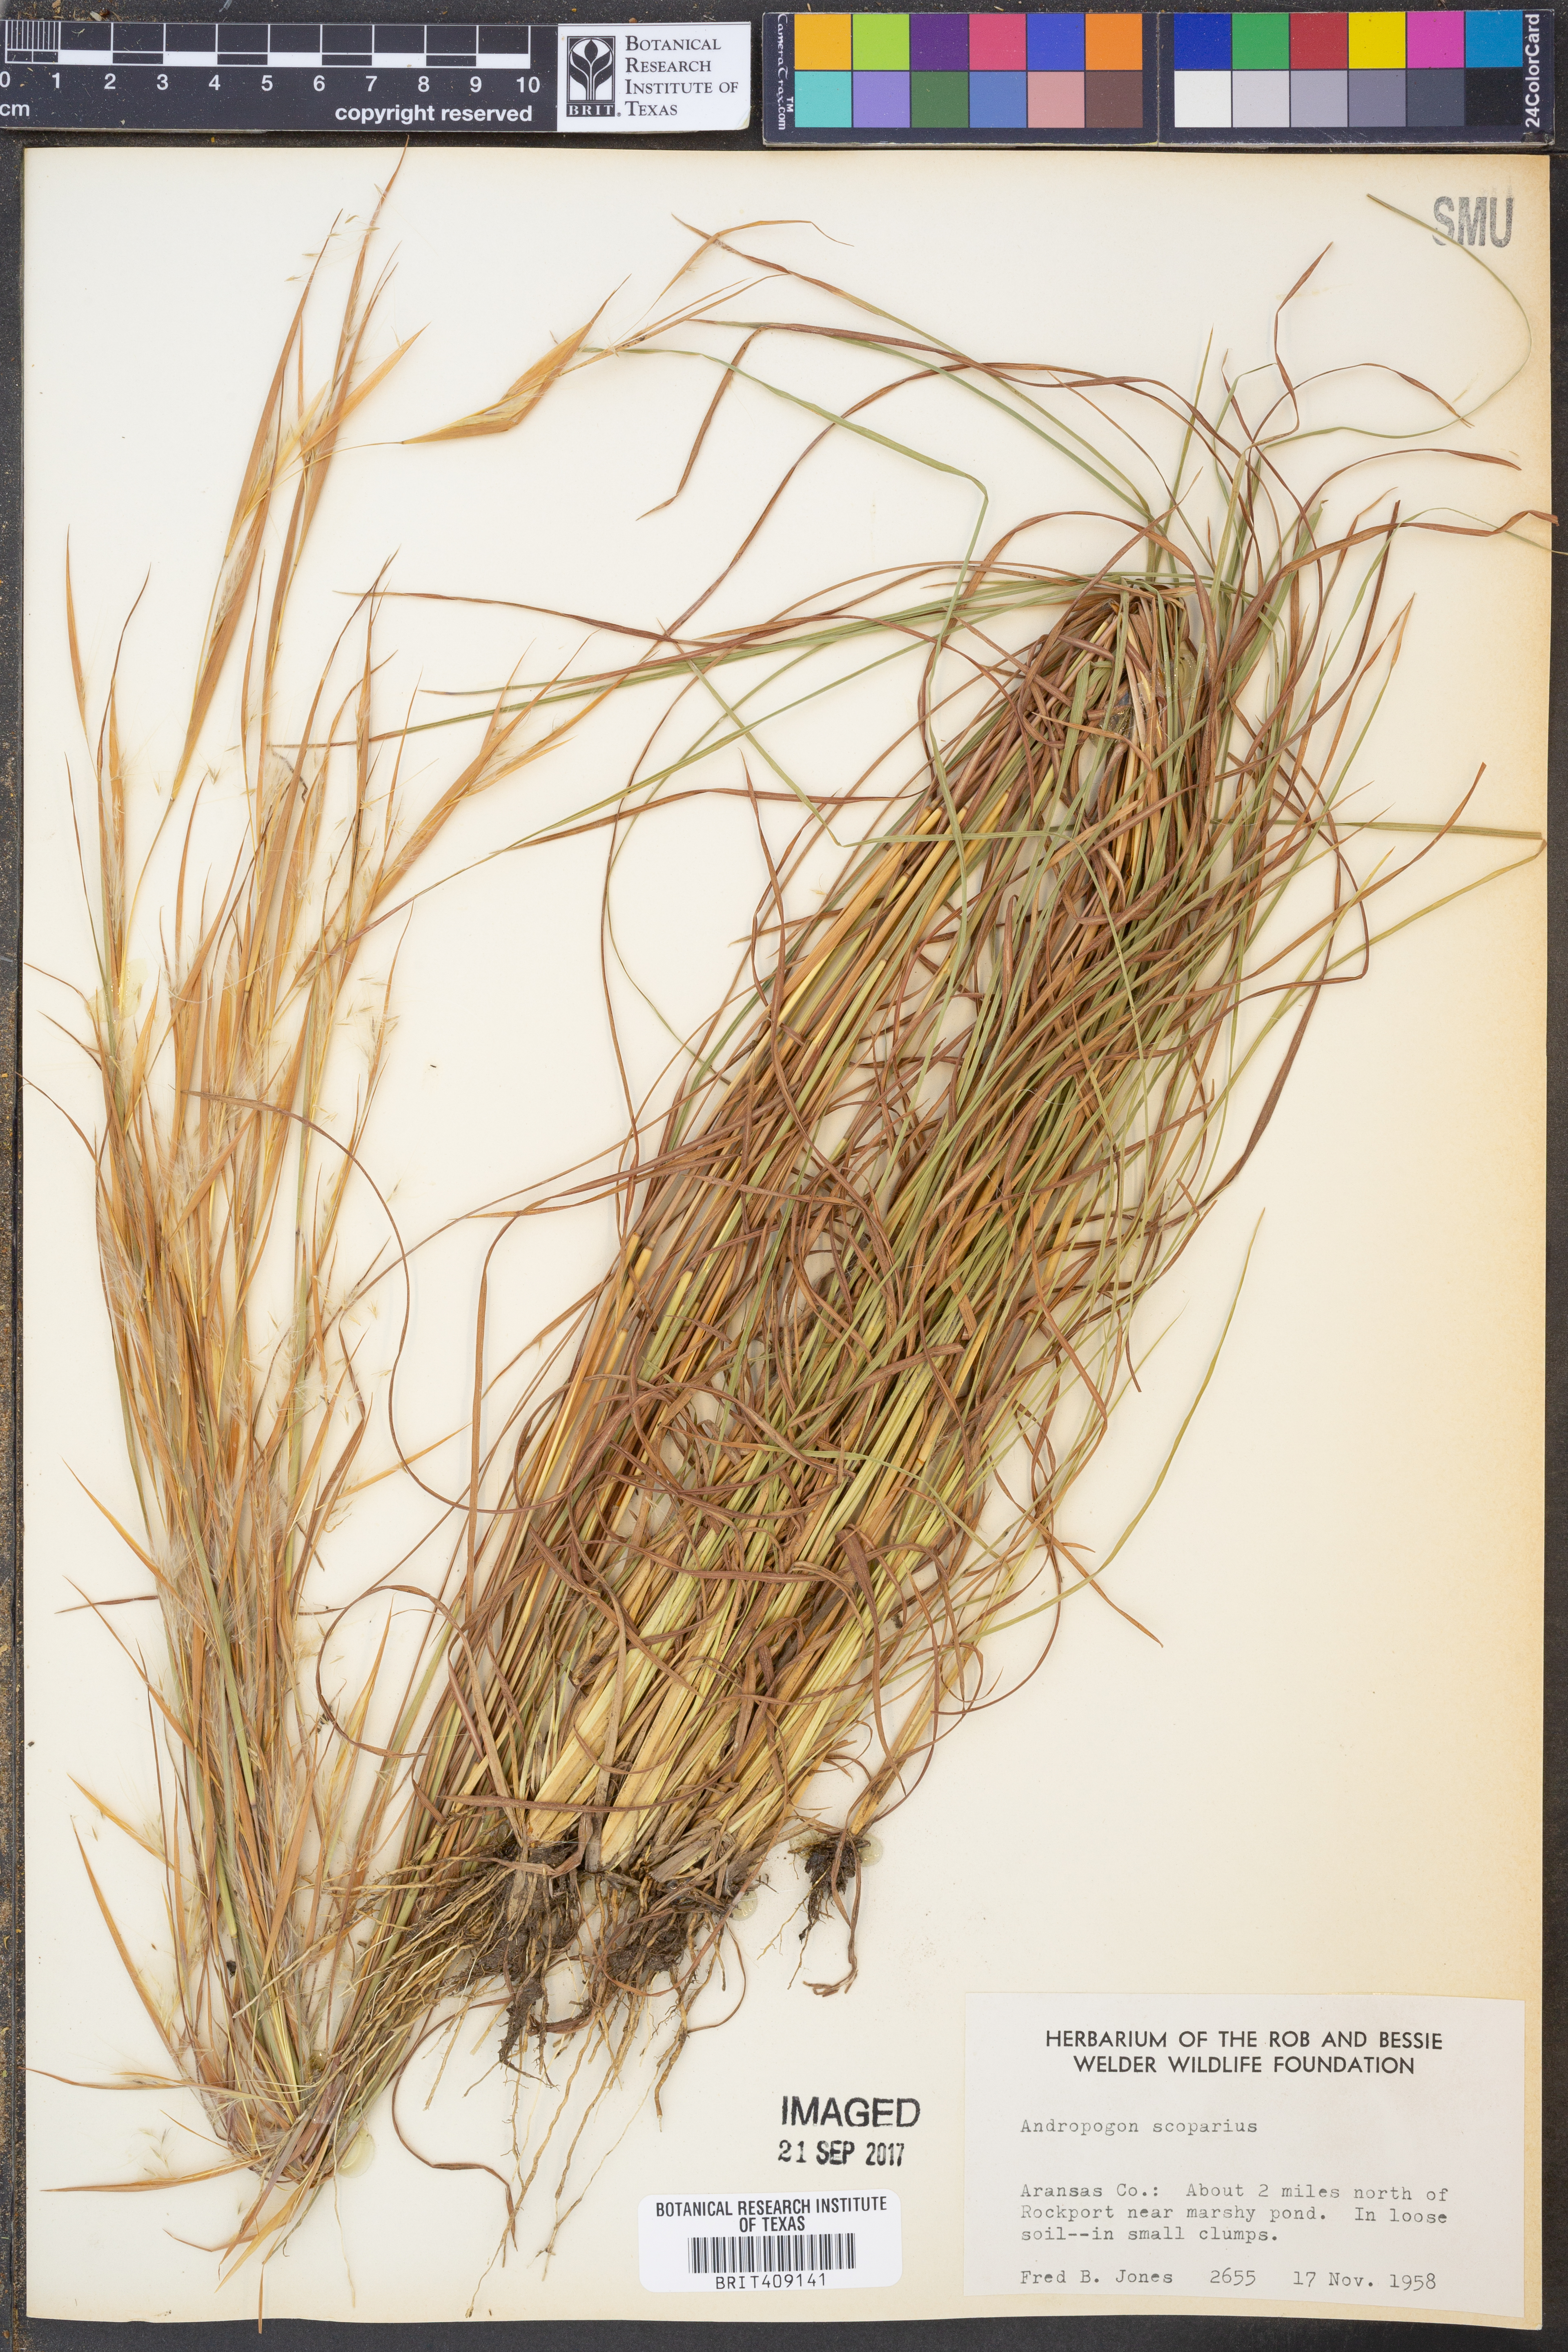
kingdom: Plantae
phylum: Tracheophyta
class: Liliopsida
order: Poales
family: Poaceae
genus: Schizachyrium
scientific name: Schizachyrium scoparium
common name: Little bluestem
